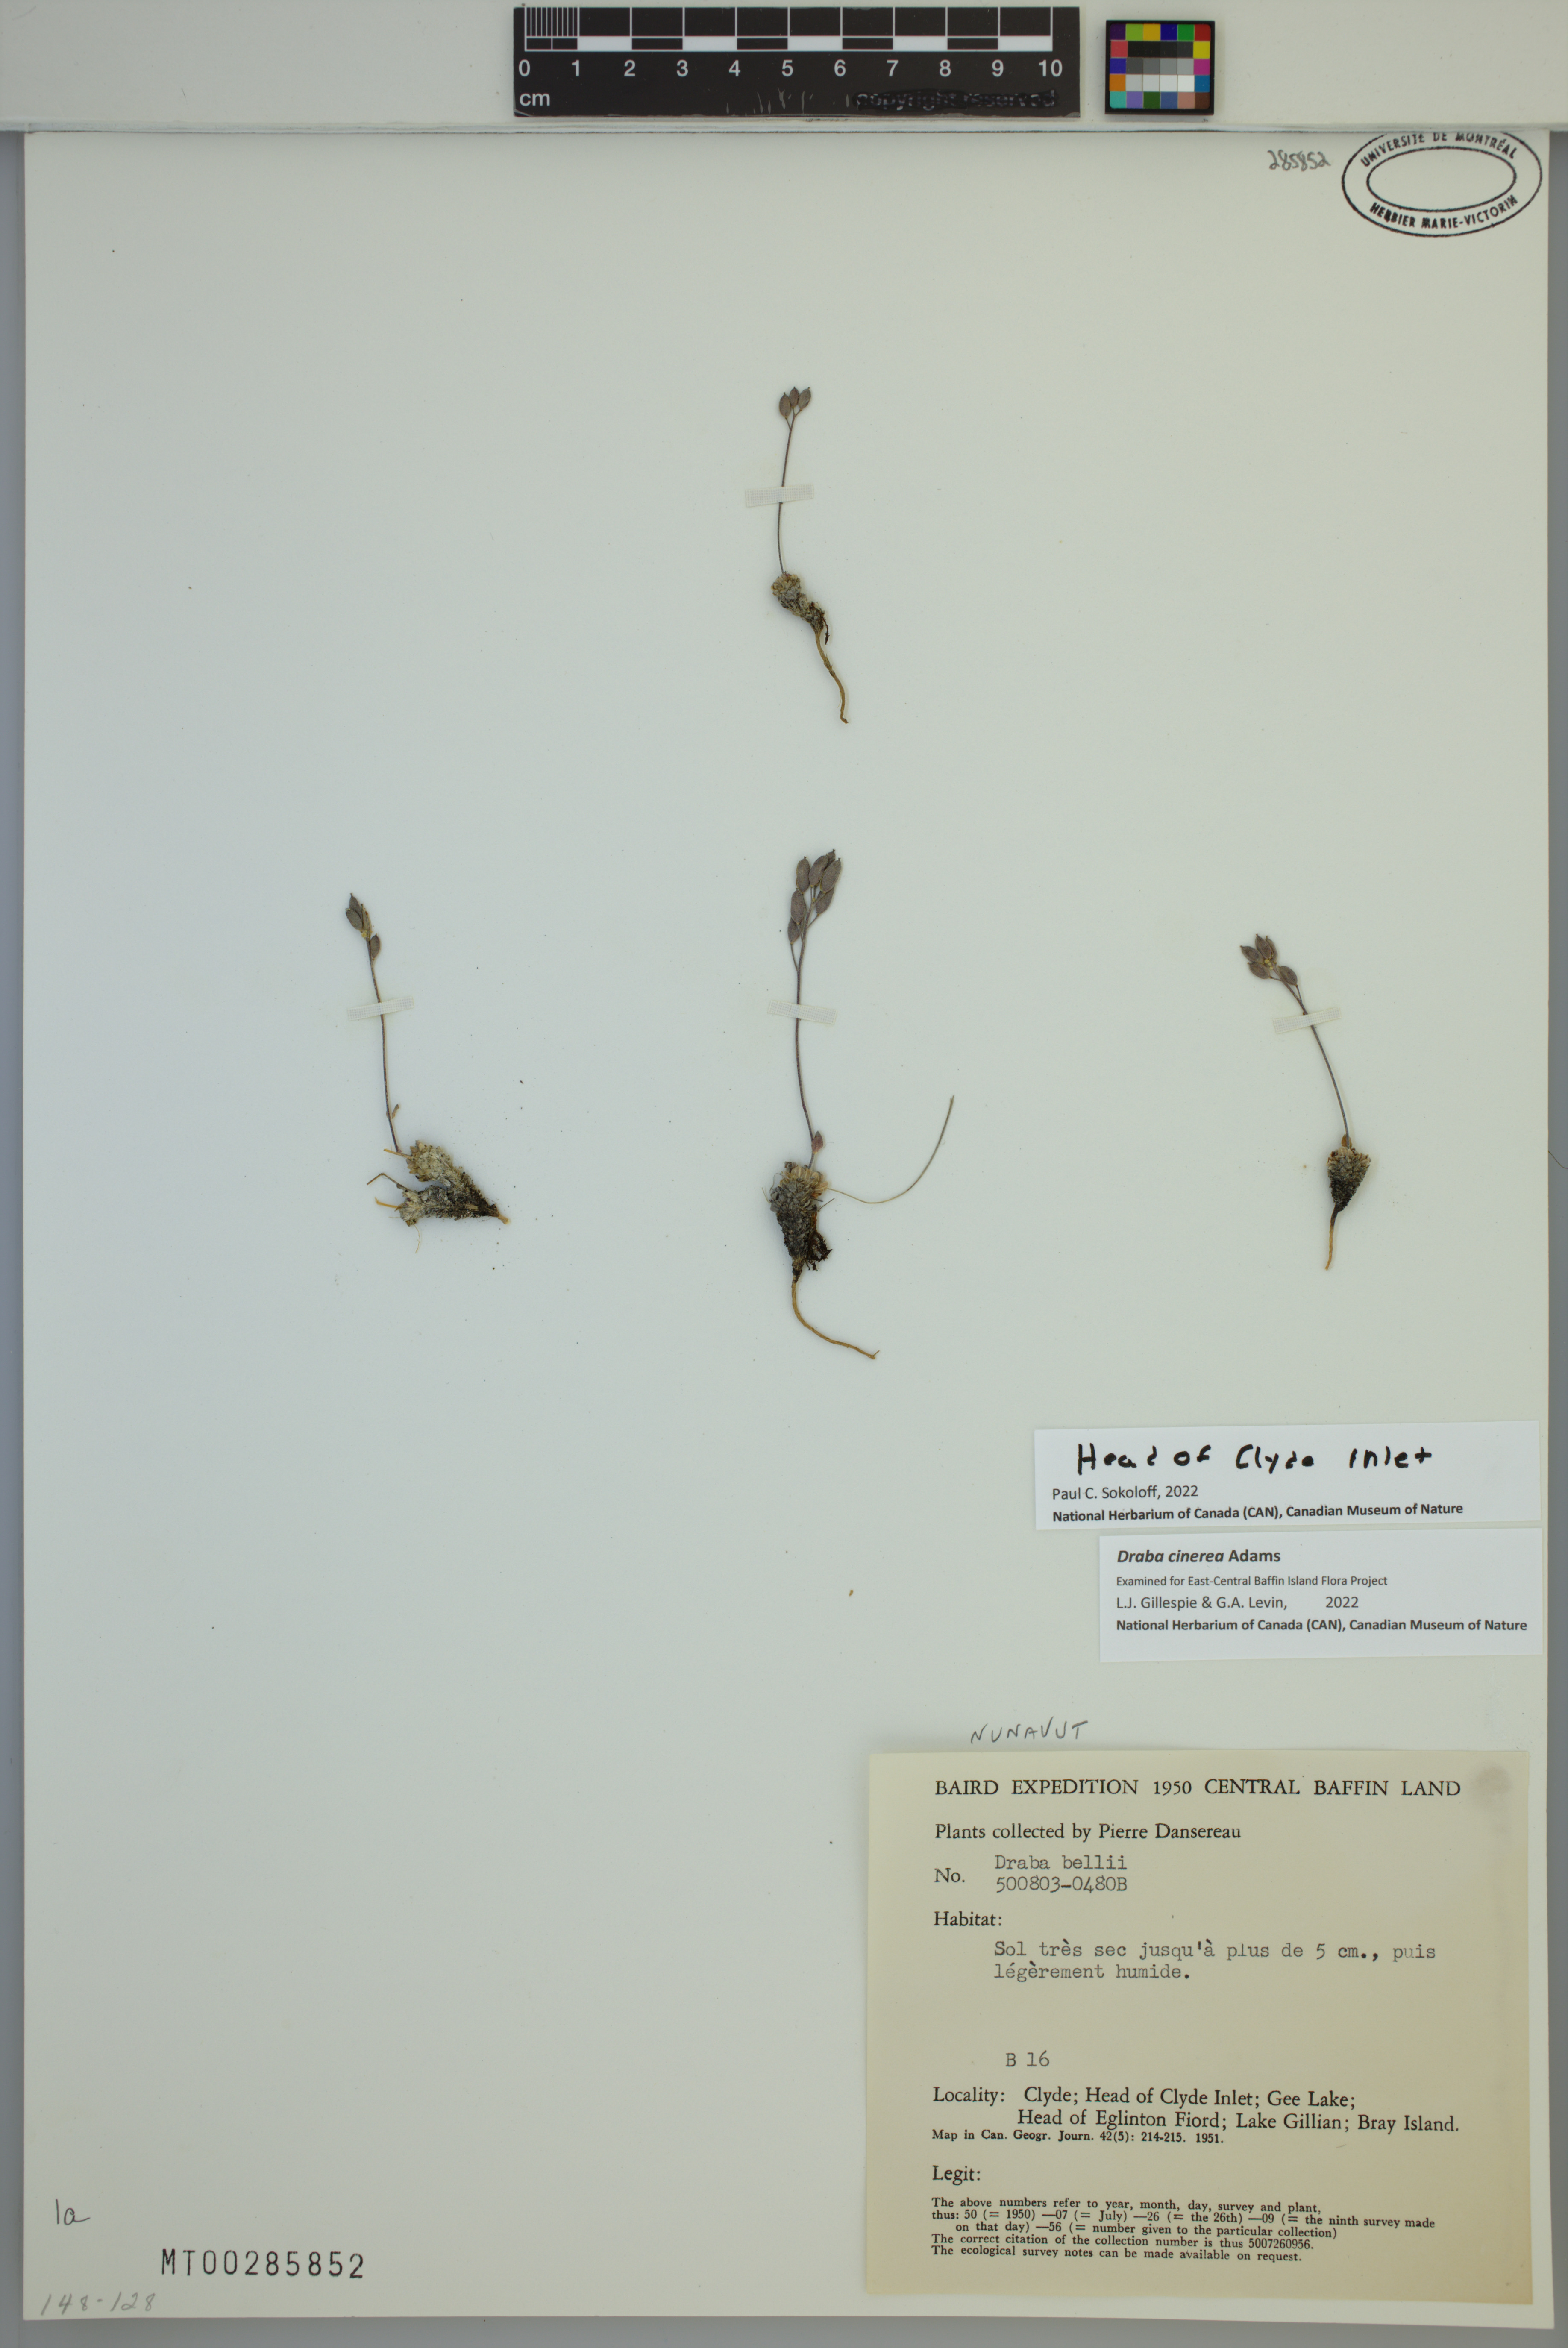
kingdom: Plantae
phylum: Tracheophyta
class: Magnoliopsida
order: Brassicales
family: Brassicaceae
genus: Draba
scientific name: Draba cinerea
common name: Ash-coloured whitlow-grass
